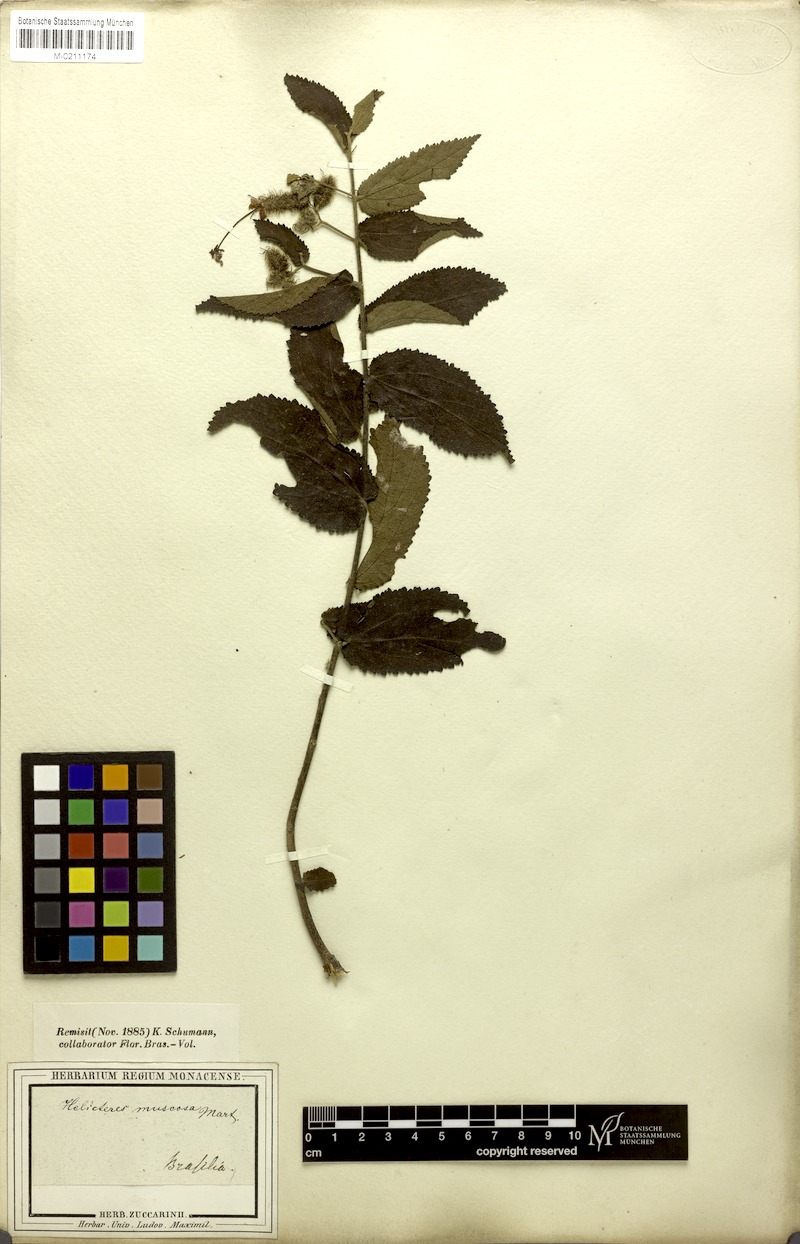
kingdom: Plantae
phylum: Tracheophyta
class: Magnoliopsida
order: Malvales
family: Malvaceae
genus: Helicteres
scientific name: Helicteres muscosa
